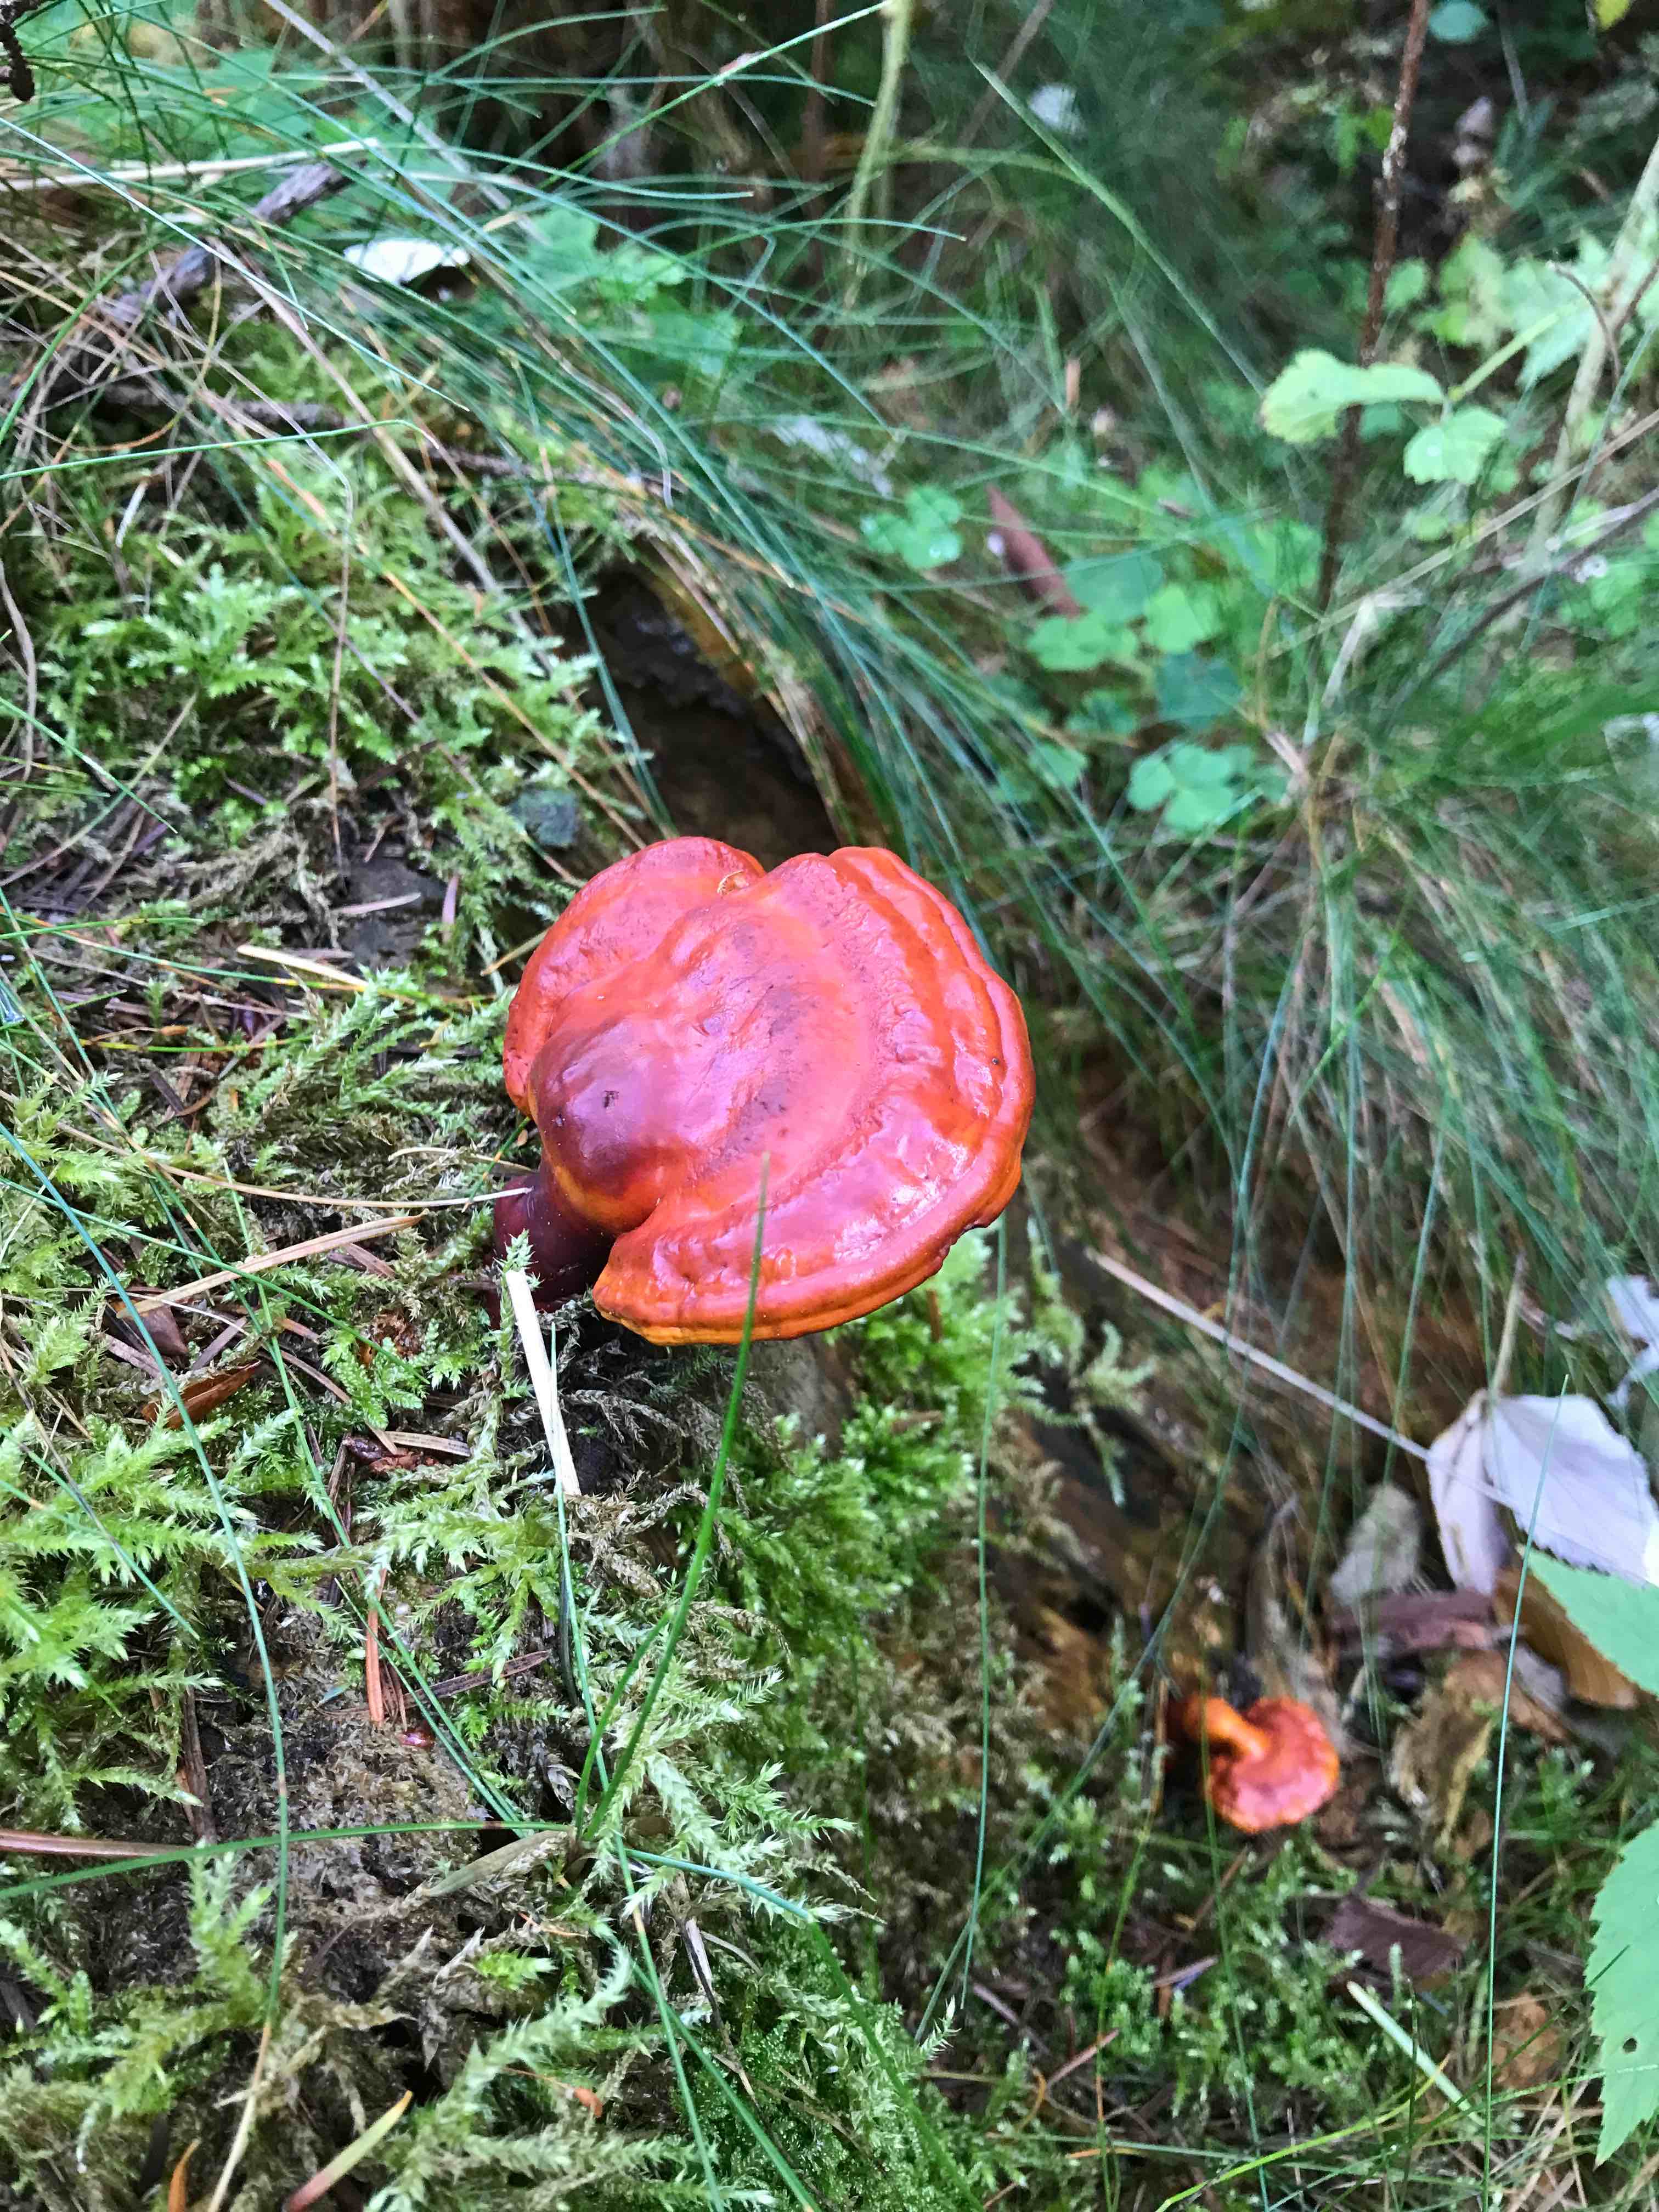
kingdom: Fungi
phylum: Basidiomycota
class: Agaricomycetes
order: Polyporales
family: Polyporaceae
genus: Ganoderma
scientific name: Ganoderma lucidum
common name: skinnende lakporesvamp
